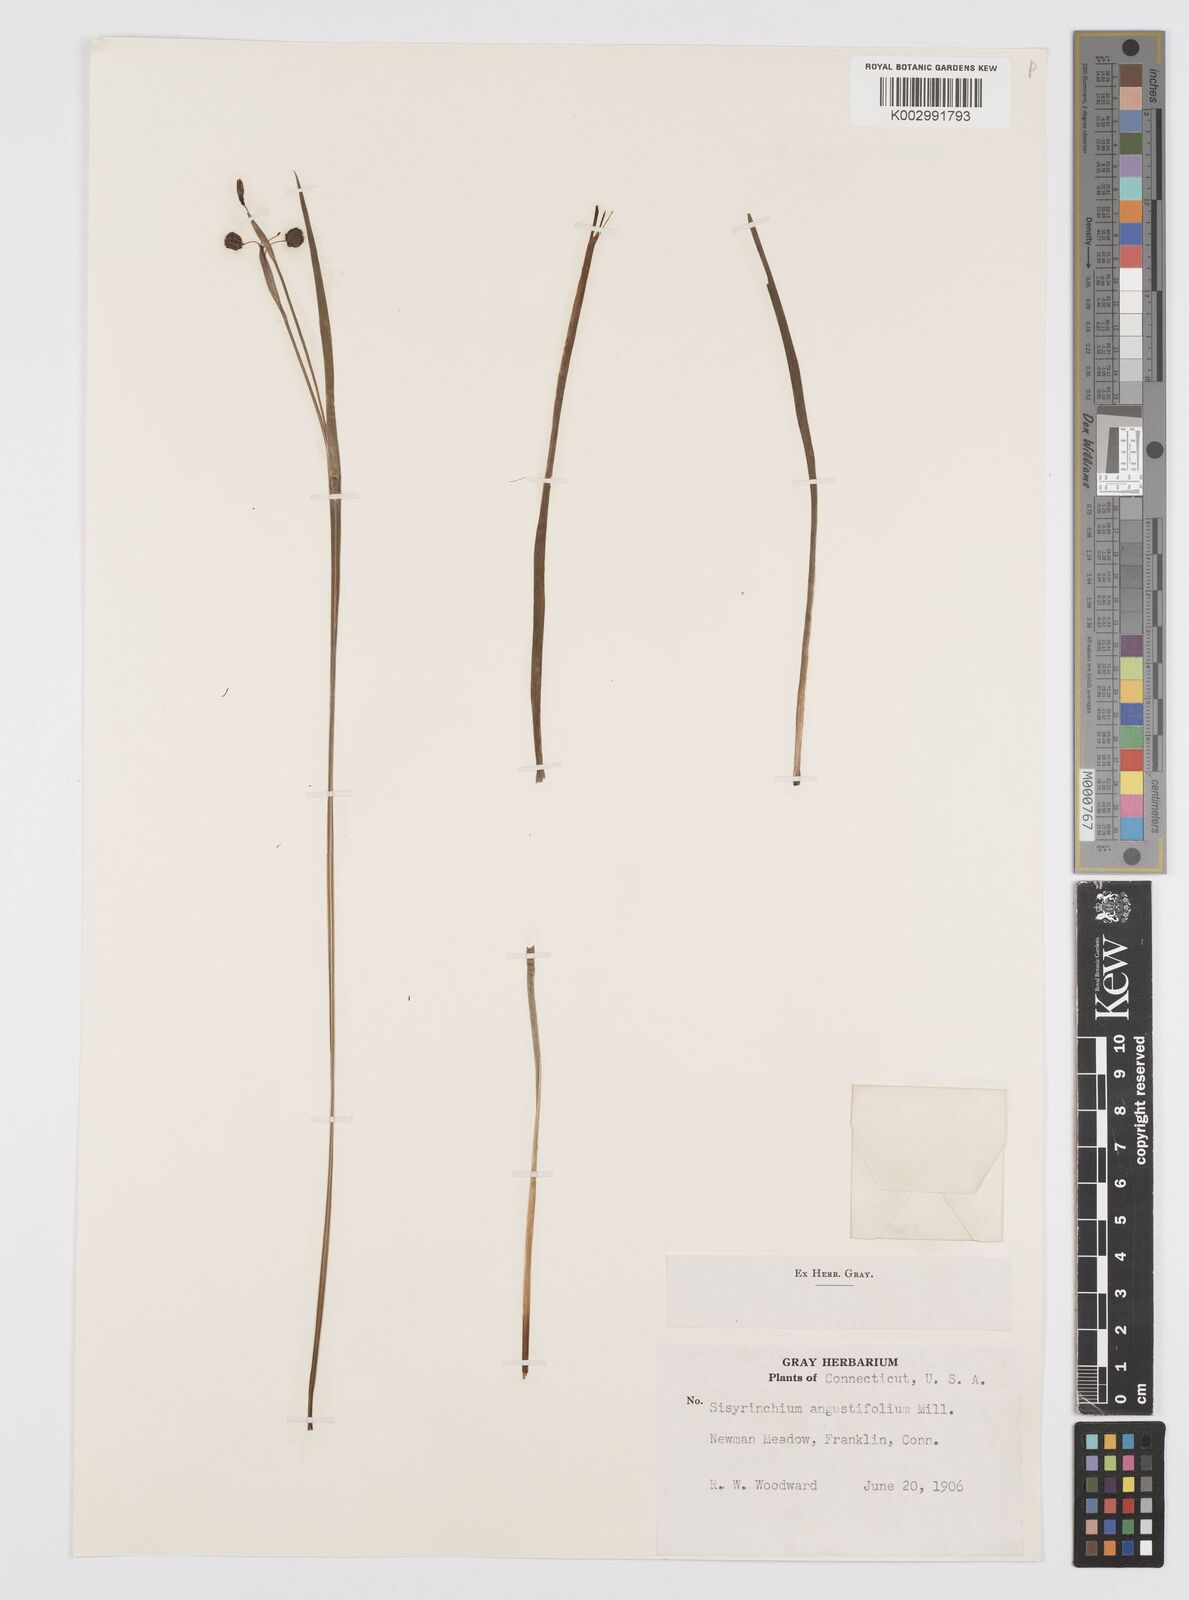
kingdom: Plantae
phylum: Tracheophyta
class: Liliopsida
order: Asparagales
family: Iridaceae
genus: Sisyrinchium
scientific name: Sisyrinchium bermudiana
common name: Blue-eyed-grass
